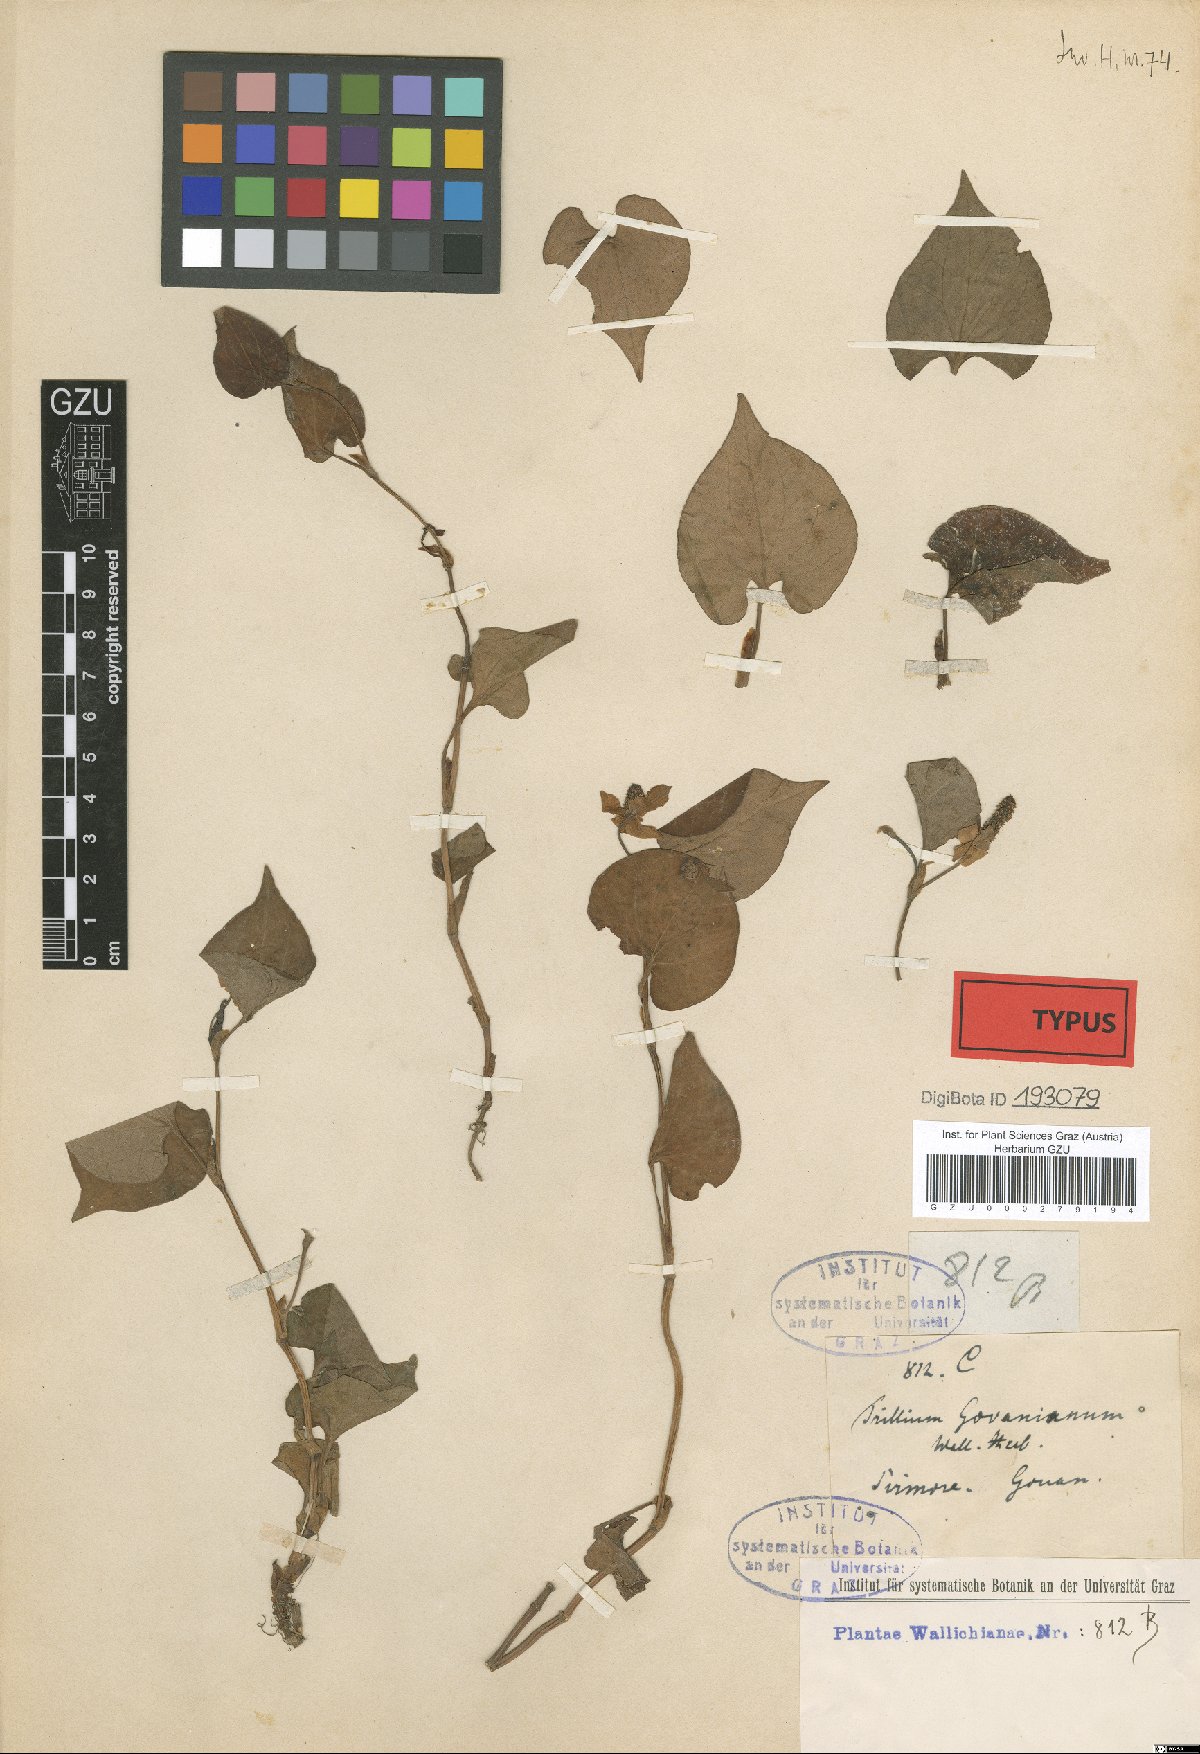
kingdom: Plantae
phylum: Tracheophyta
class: Liliopsida
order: Liliales
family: Melanthiaceae
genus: Trillium
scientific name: Trillium govanianum
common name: Himalayan trillium
